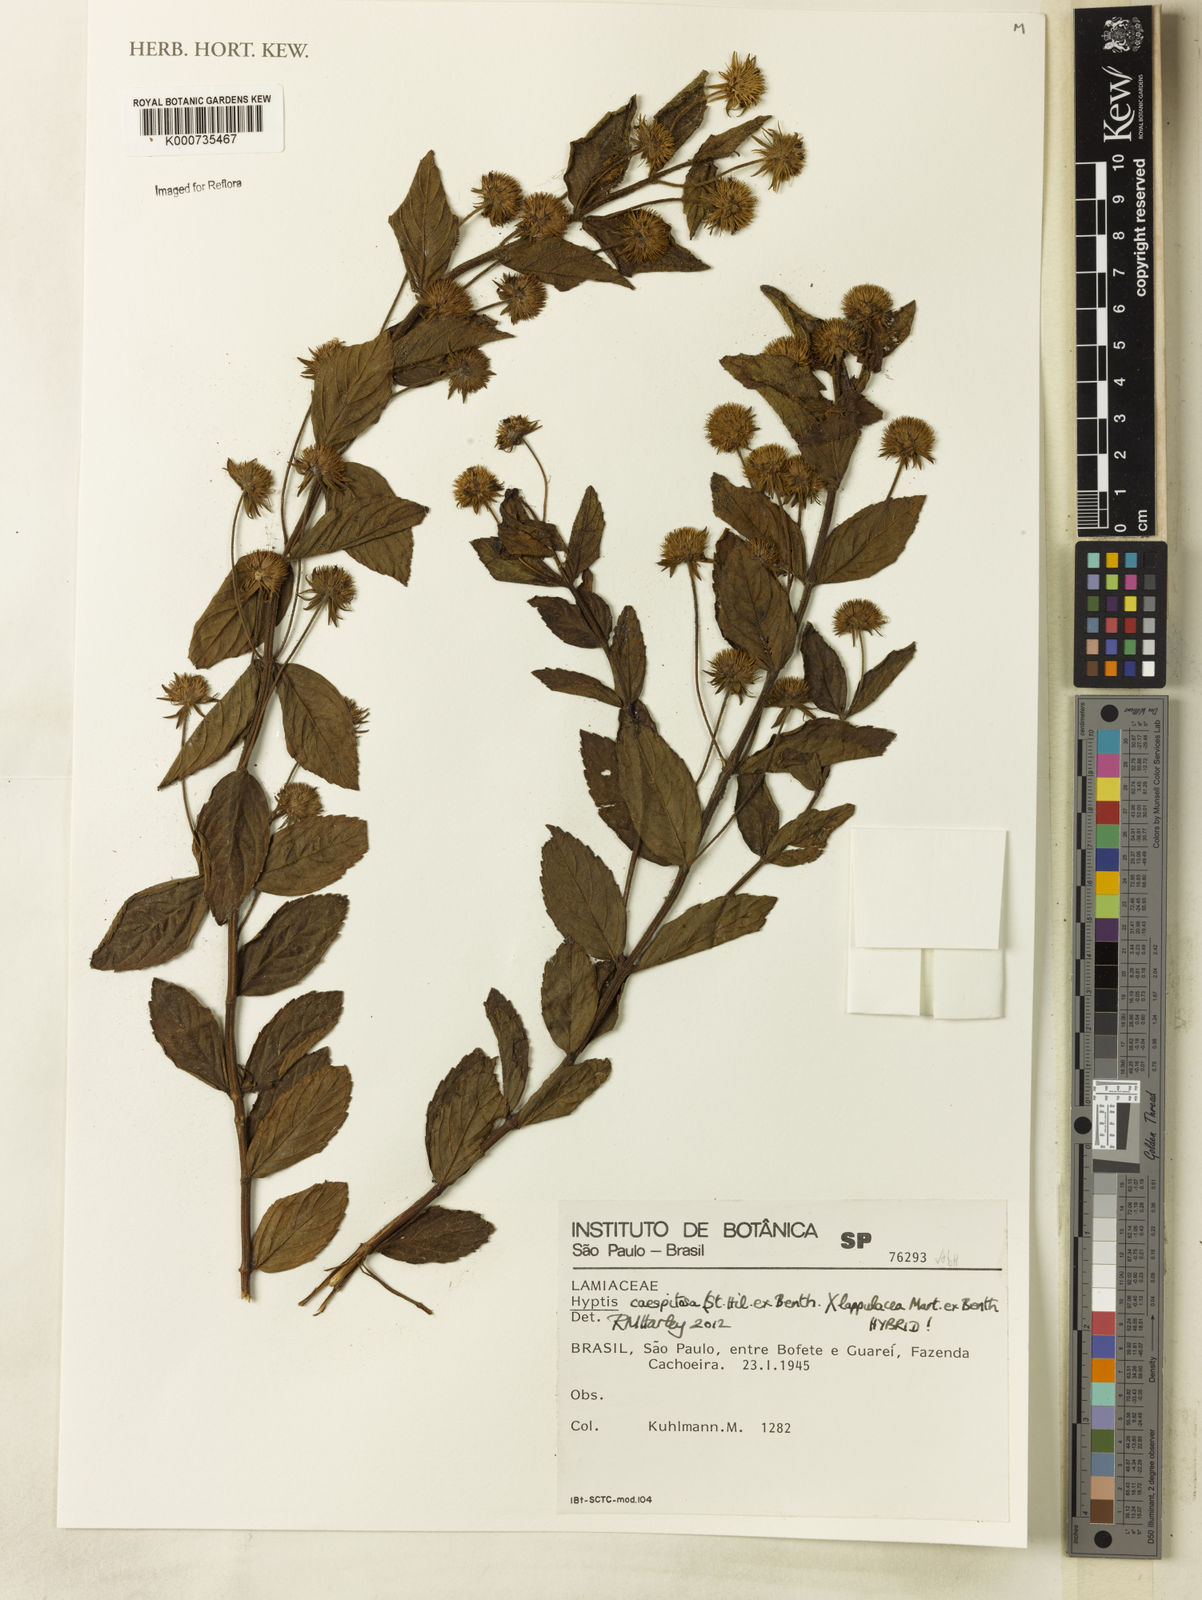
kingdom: Plantae
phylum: Tracheophyta
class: Magnoliopsida
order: Lamiales
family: Lamiaceae
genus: Hyptis
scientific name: Hyptis caespitosa
